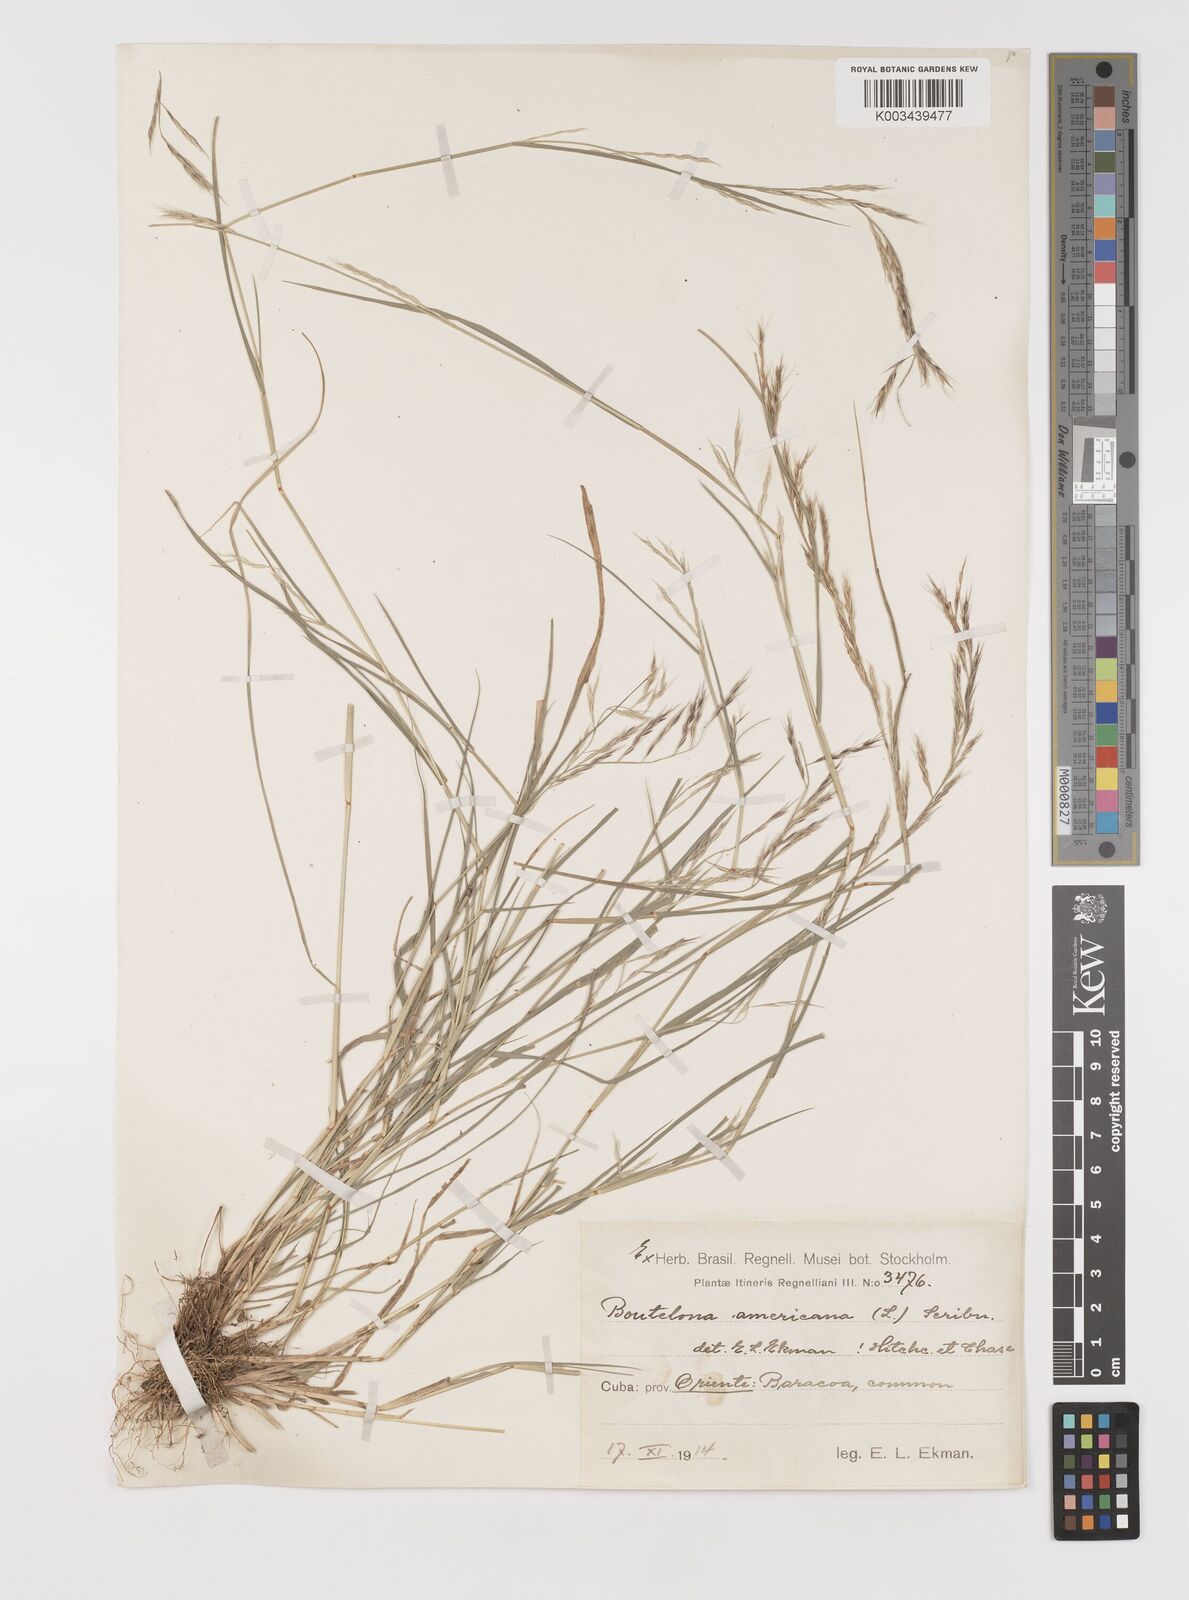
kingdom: Plantae
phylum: Tracheophyta
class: Liliopsida
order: Poales
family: Poaceae
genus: Bouteloua
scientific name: Bouteloua americana
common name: Mule grass
